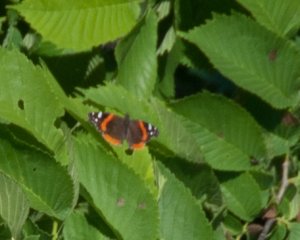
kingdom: Animalia
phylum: Arthropoda
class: Insecta
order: Lepidoptera
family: Nymphalidae
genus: Vanessa
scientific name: Vanessa atalanta
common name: Red Admiral
